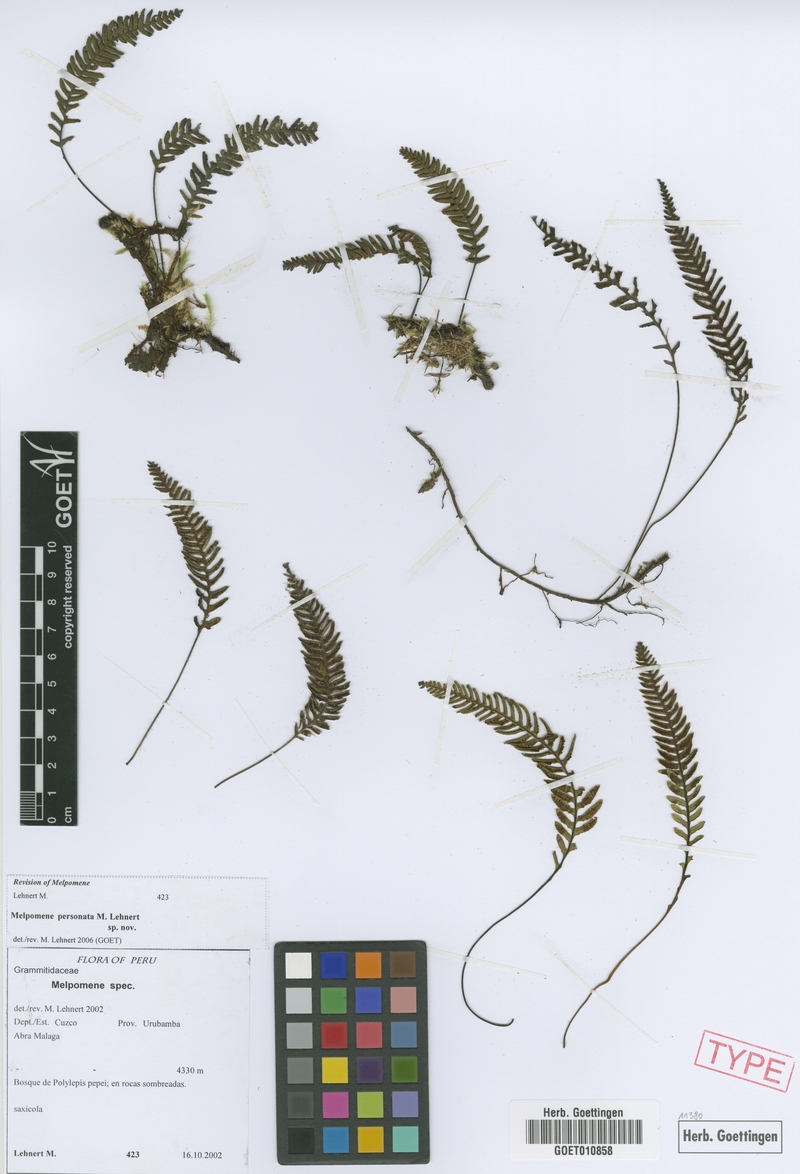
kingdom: Plantae
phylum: Tracheophyta
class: Polypodiopsida
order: Polypodiales
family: Polypodiaceae
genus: Melpomene
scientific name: Melpomene personata
